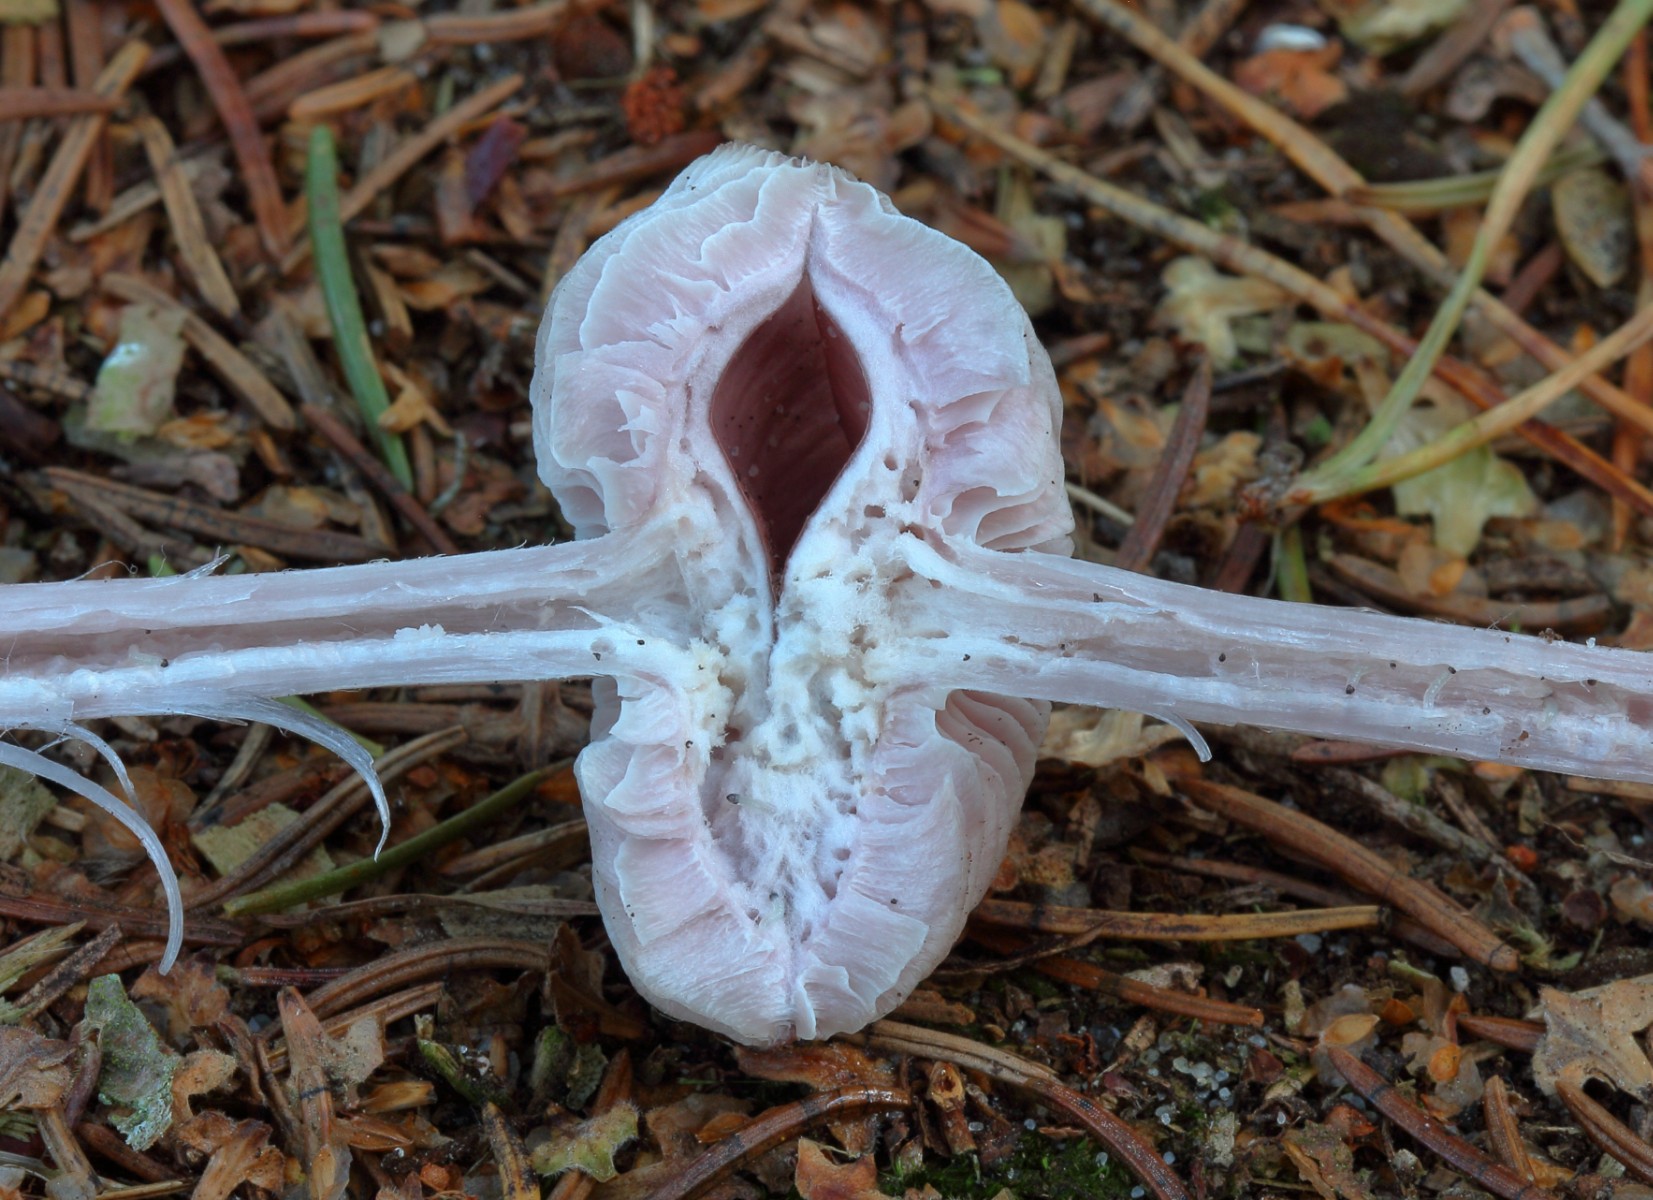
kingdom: Fungi
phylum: Basidiomycota
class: Agaricomycetes
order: Agaricales
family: Mycenaceae
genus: Mycena
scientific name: Mycena rosea
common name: rosa huesvamp
